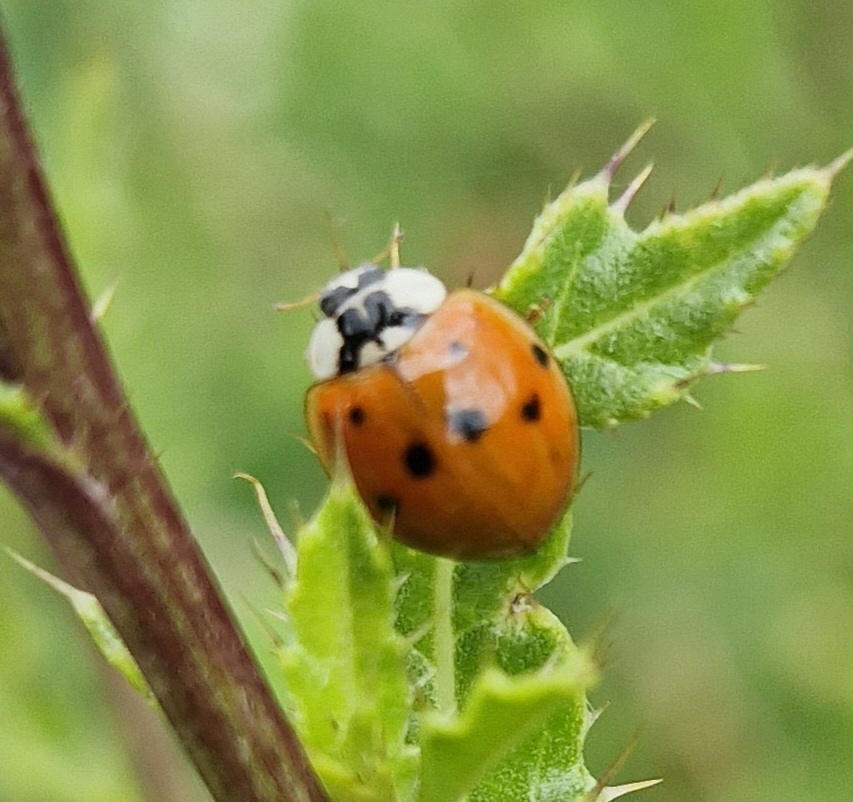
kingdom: Animalia
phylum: Arthropoda
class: Insecta
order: Coleoptera
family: Coccinellidae
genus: Harmonia
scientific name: Harmonia axyridis
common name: Harlekinmariehøne
